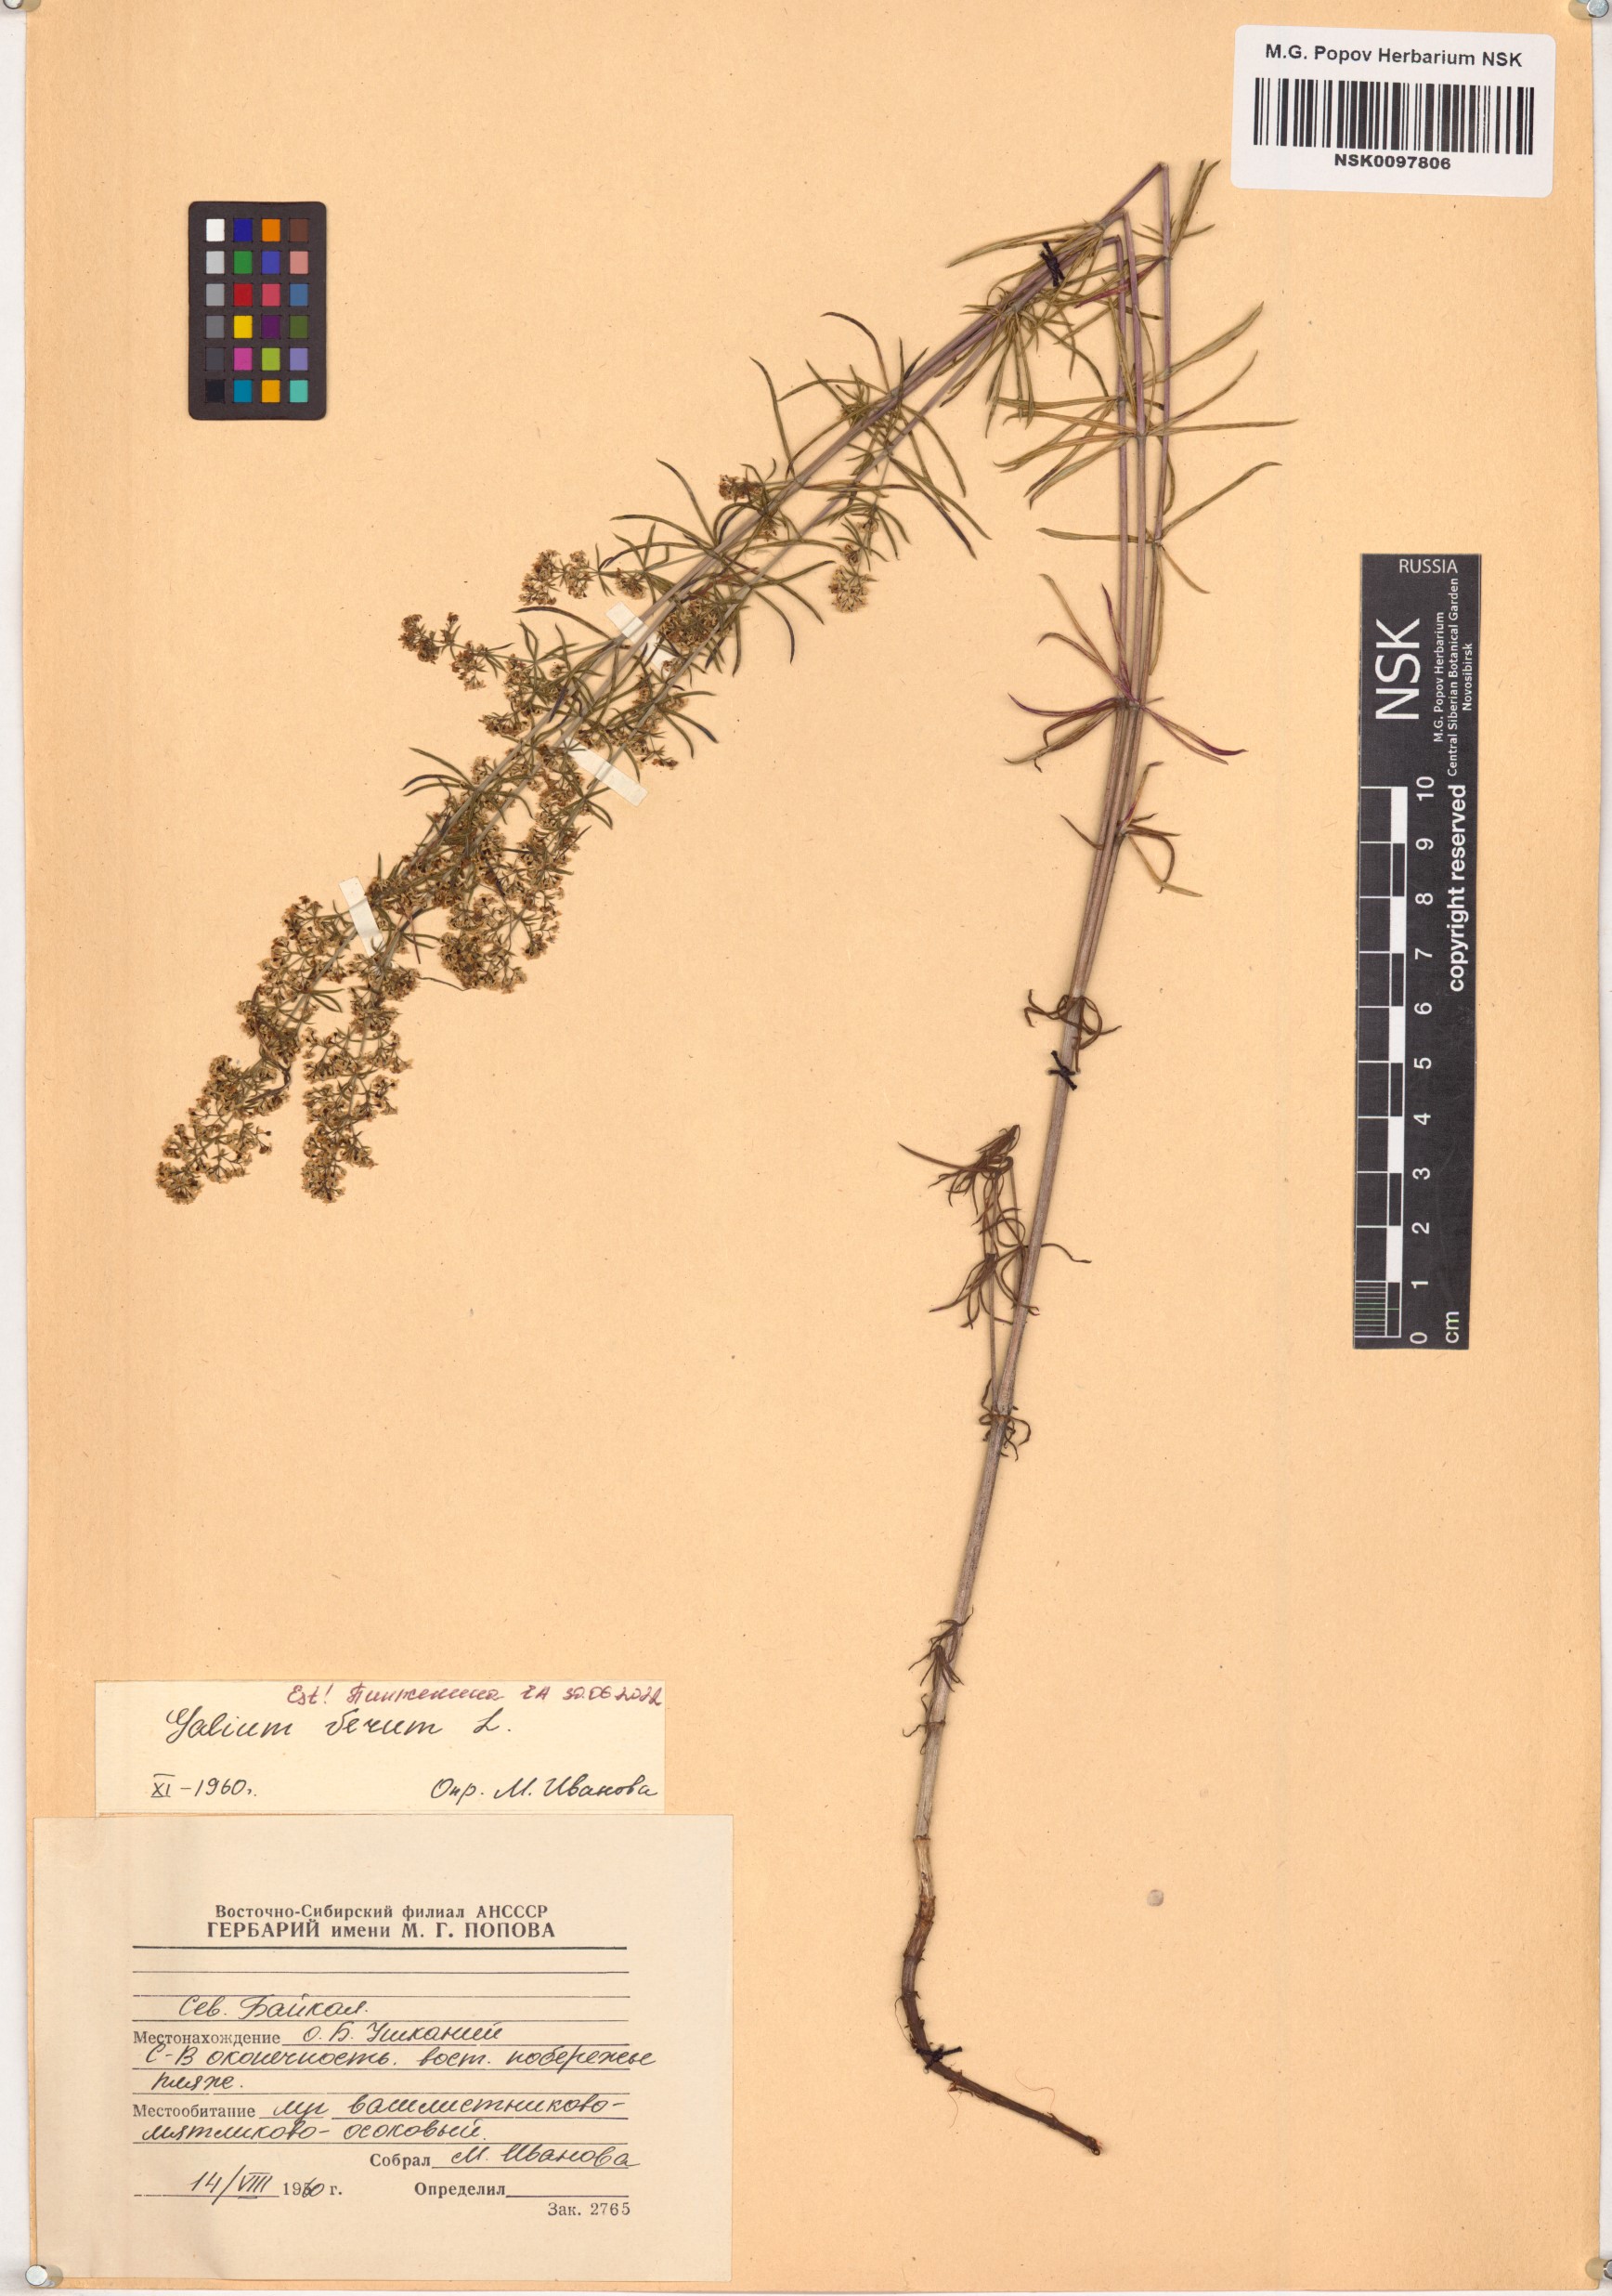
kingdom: Plantae
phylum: Tracheophyta
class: Magnoliopsida
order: Gentianales
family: Rubiaceae
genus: Galium
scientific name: Galium verum
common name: Lady's bedstraw
